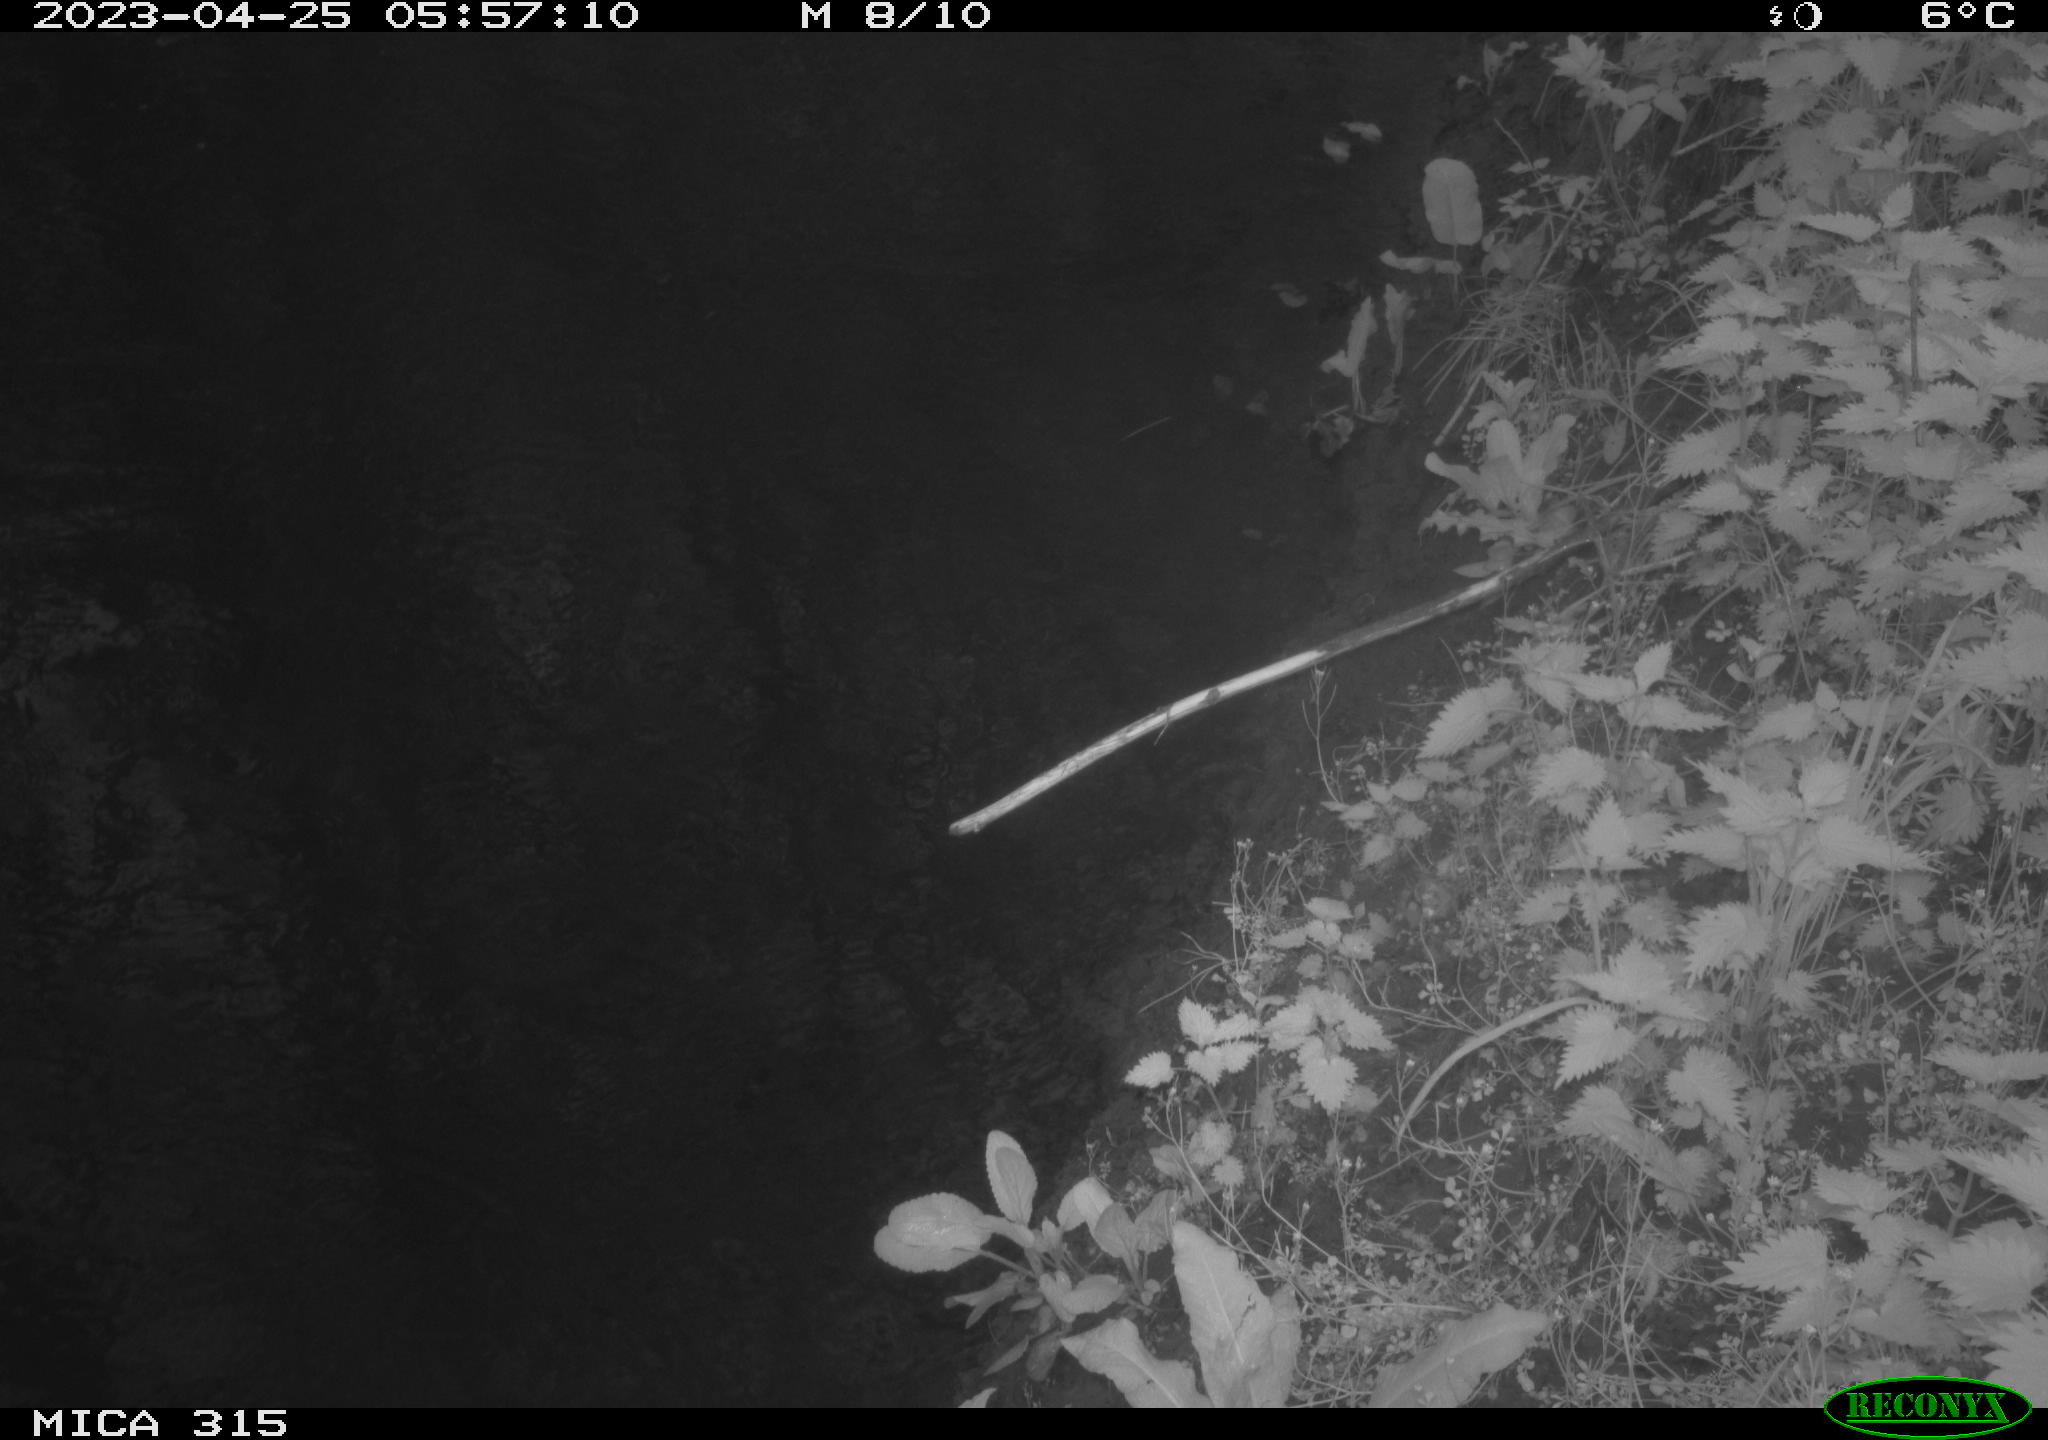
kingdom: Animalia
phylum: Chordata
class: Mammalia
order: Artiodactyla
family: Cervidae
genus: Capreolus
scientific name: Capreolus capreolus
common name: Western roe deer
